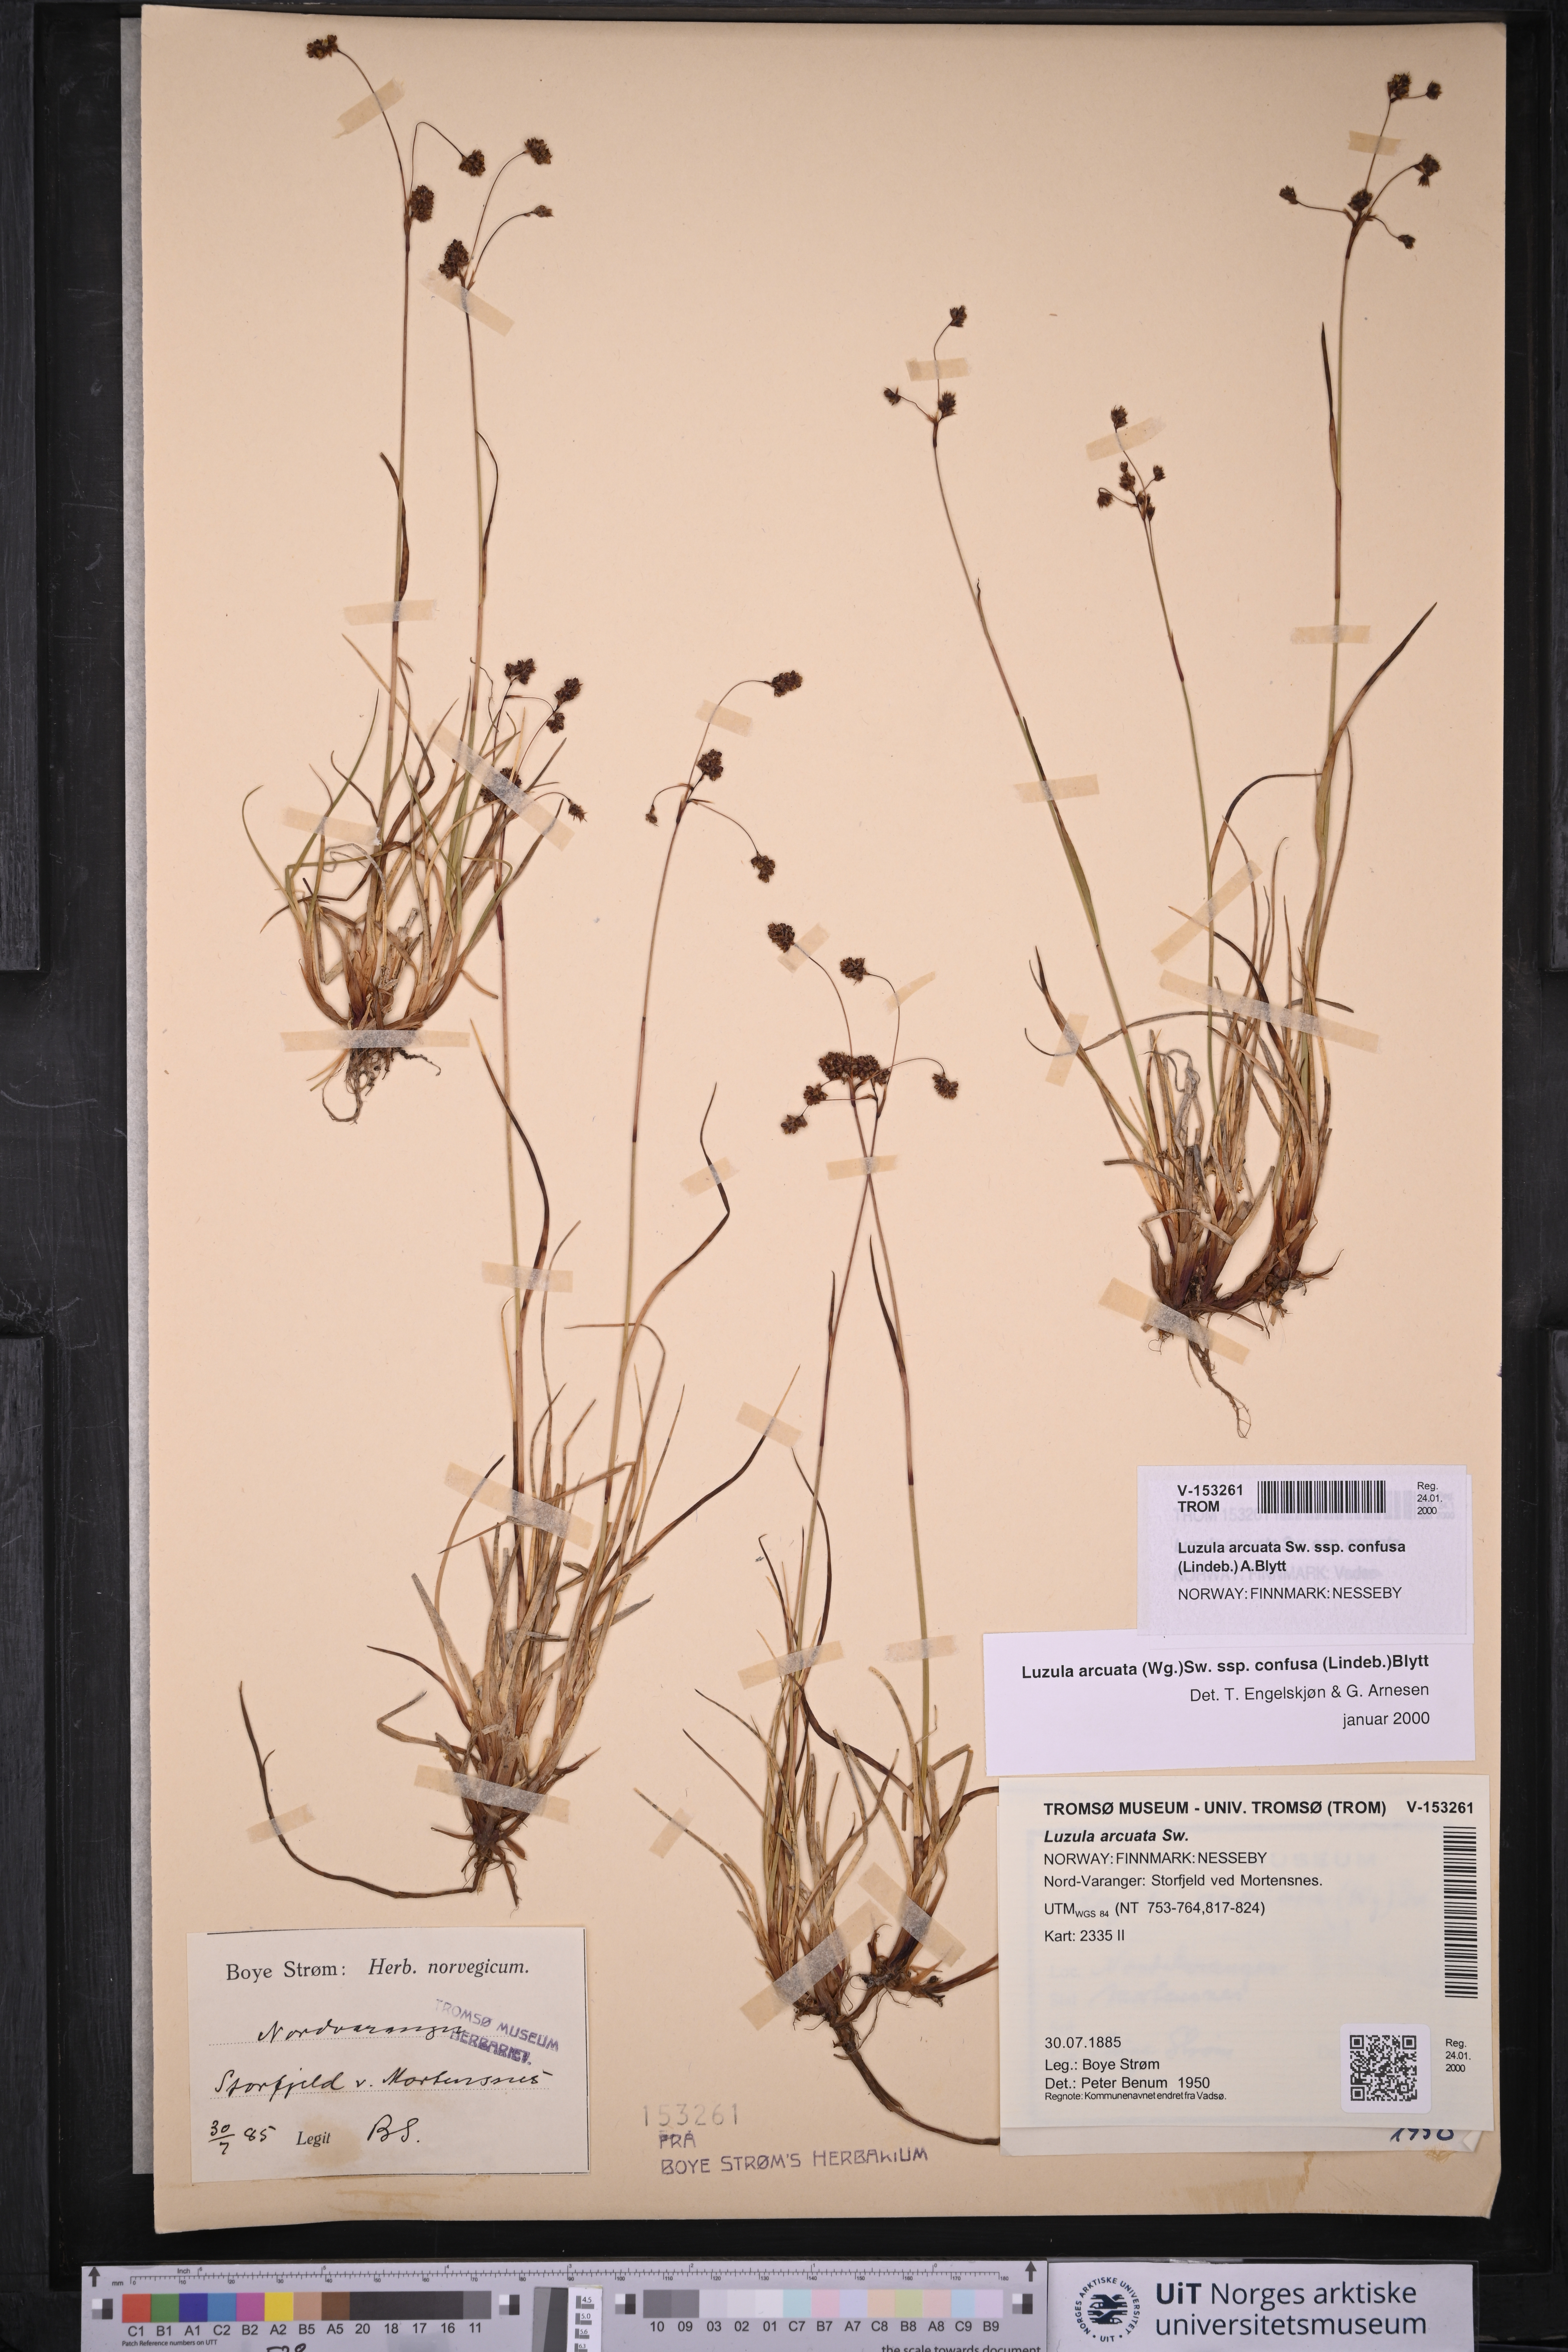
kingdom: Plantae
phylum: Tracheophyta
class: Liliopsida
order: Poales
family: Juncaceae
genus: Luzula
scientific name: Luzula confusa
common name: Northern wood rush
